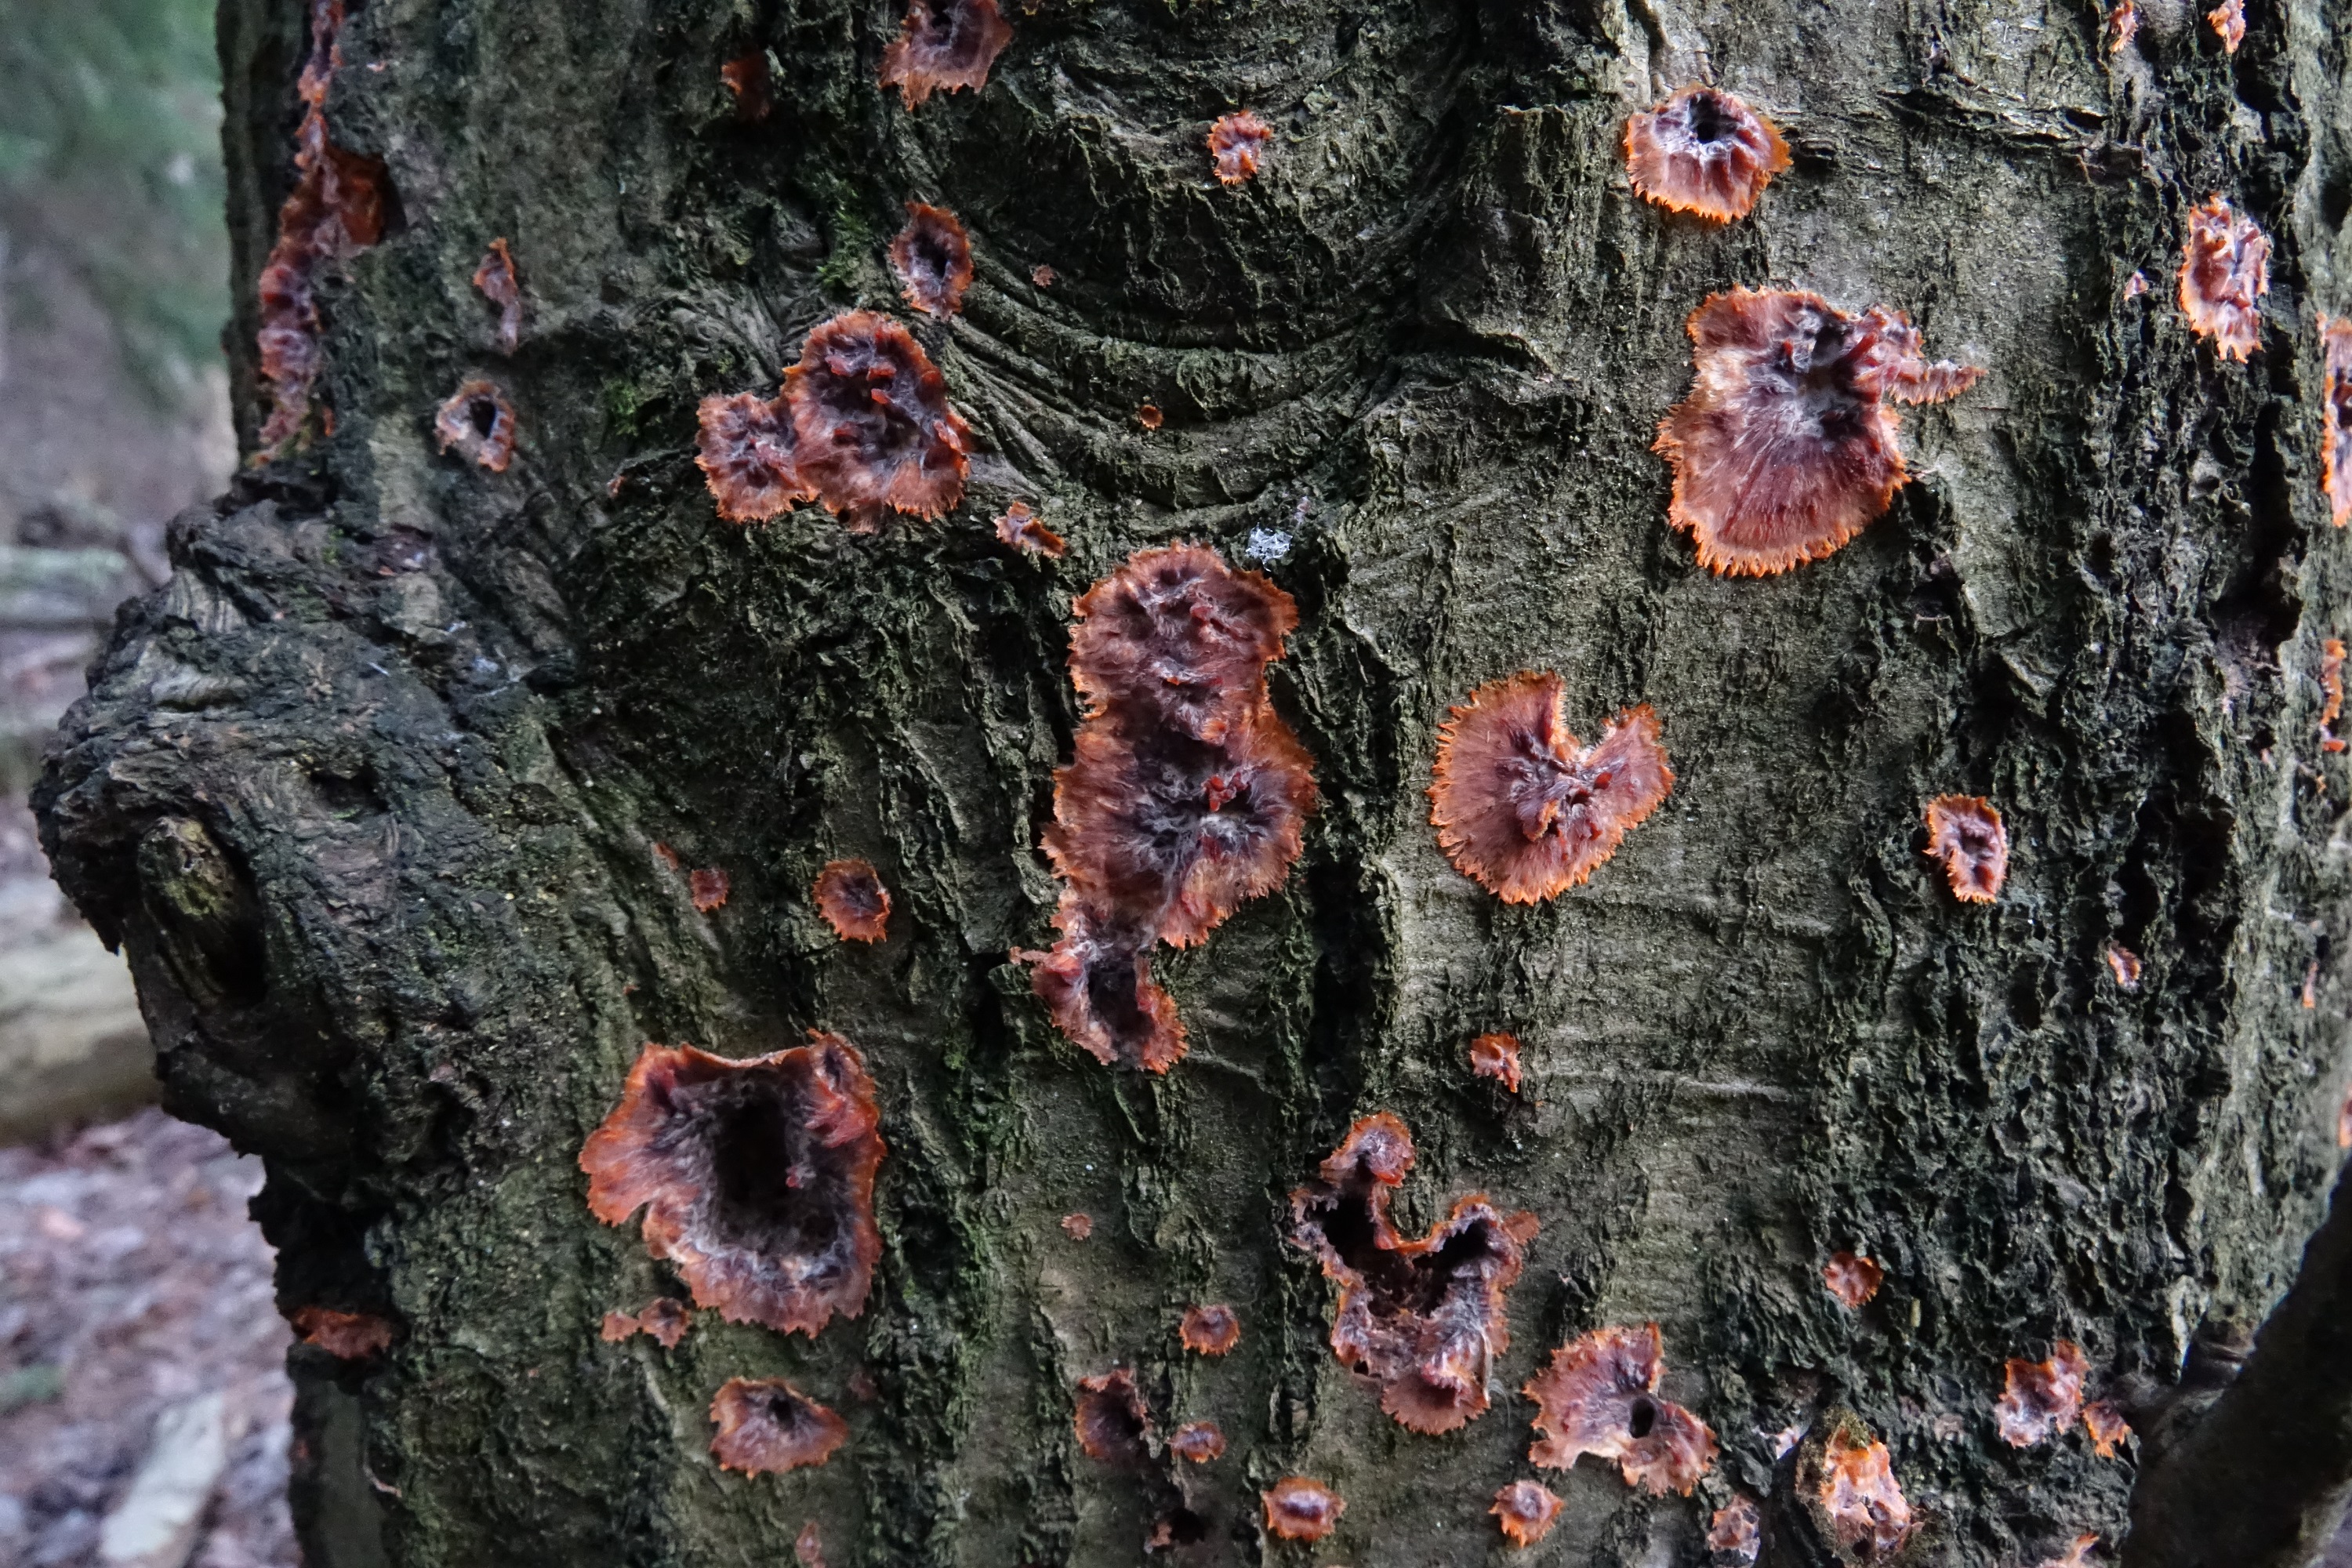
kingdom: Fungi
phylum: Basidiomycota
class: Agaricomycetes
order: Polyporales
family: Meruliaceae
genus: Phlebia
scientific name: Phlebia radiata
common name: Wrinkled crust
